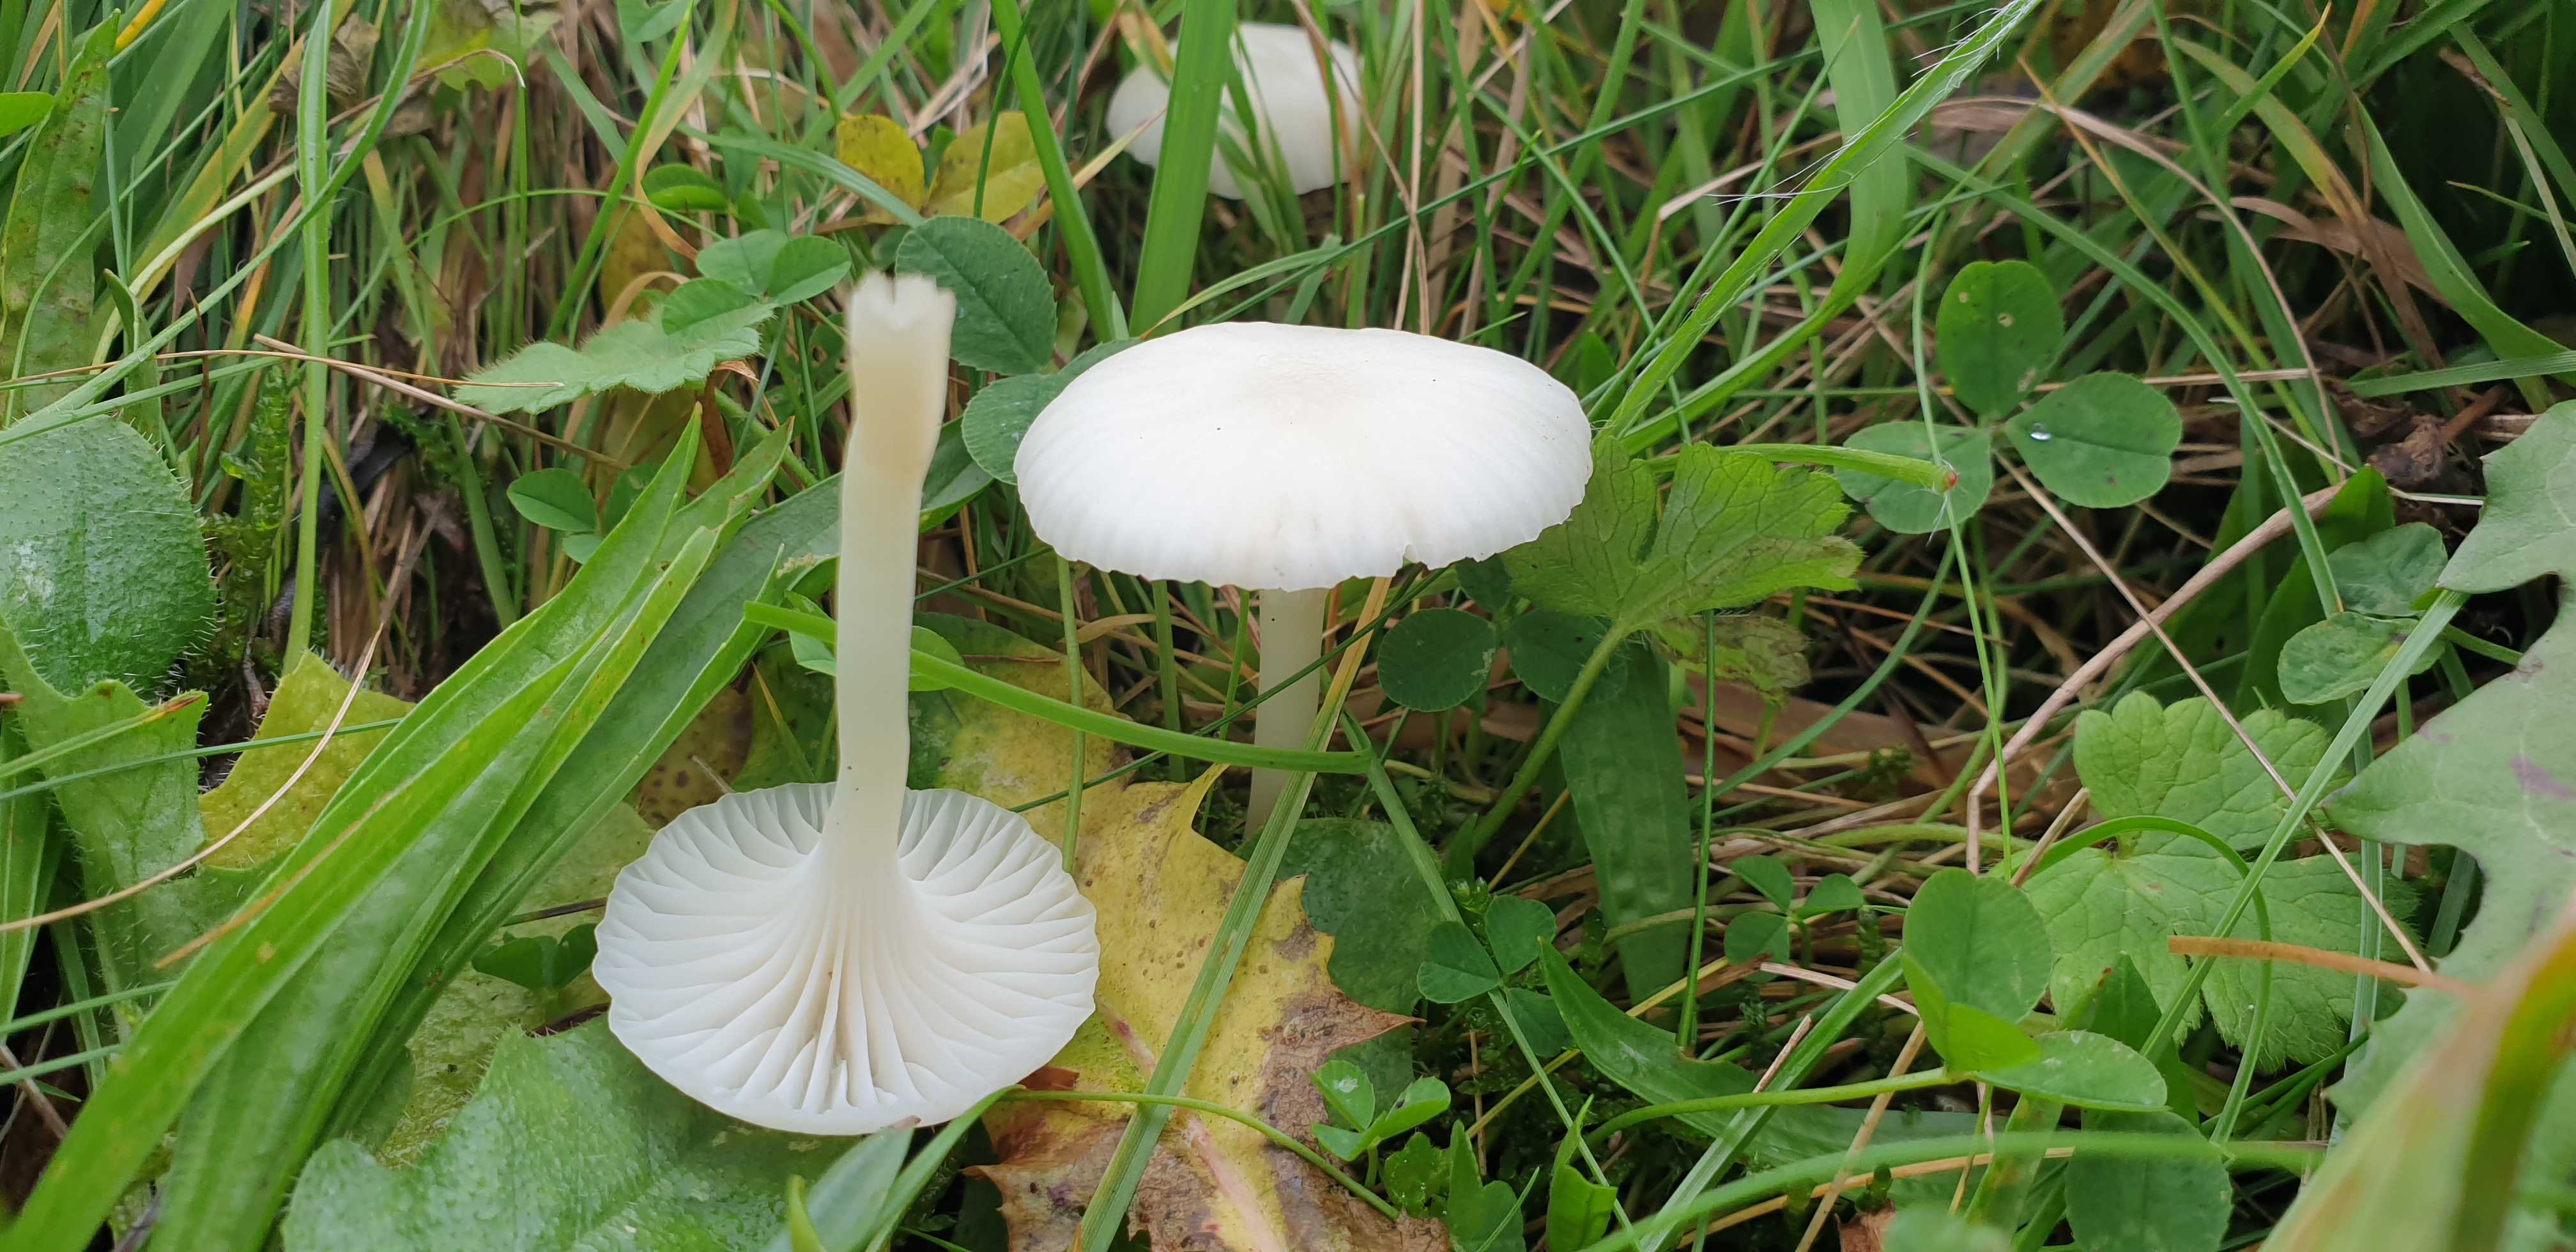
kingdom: Fungi
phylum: Basidiomycota
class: Agaricomycetes
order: Agaricales
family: Hygrophoraceae
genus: Cuphophyllus
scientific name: Cuphophyllus virgineus
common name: snehvid vokshat
